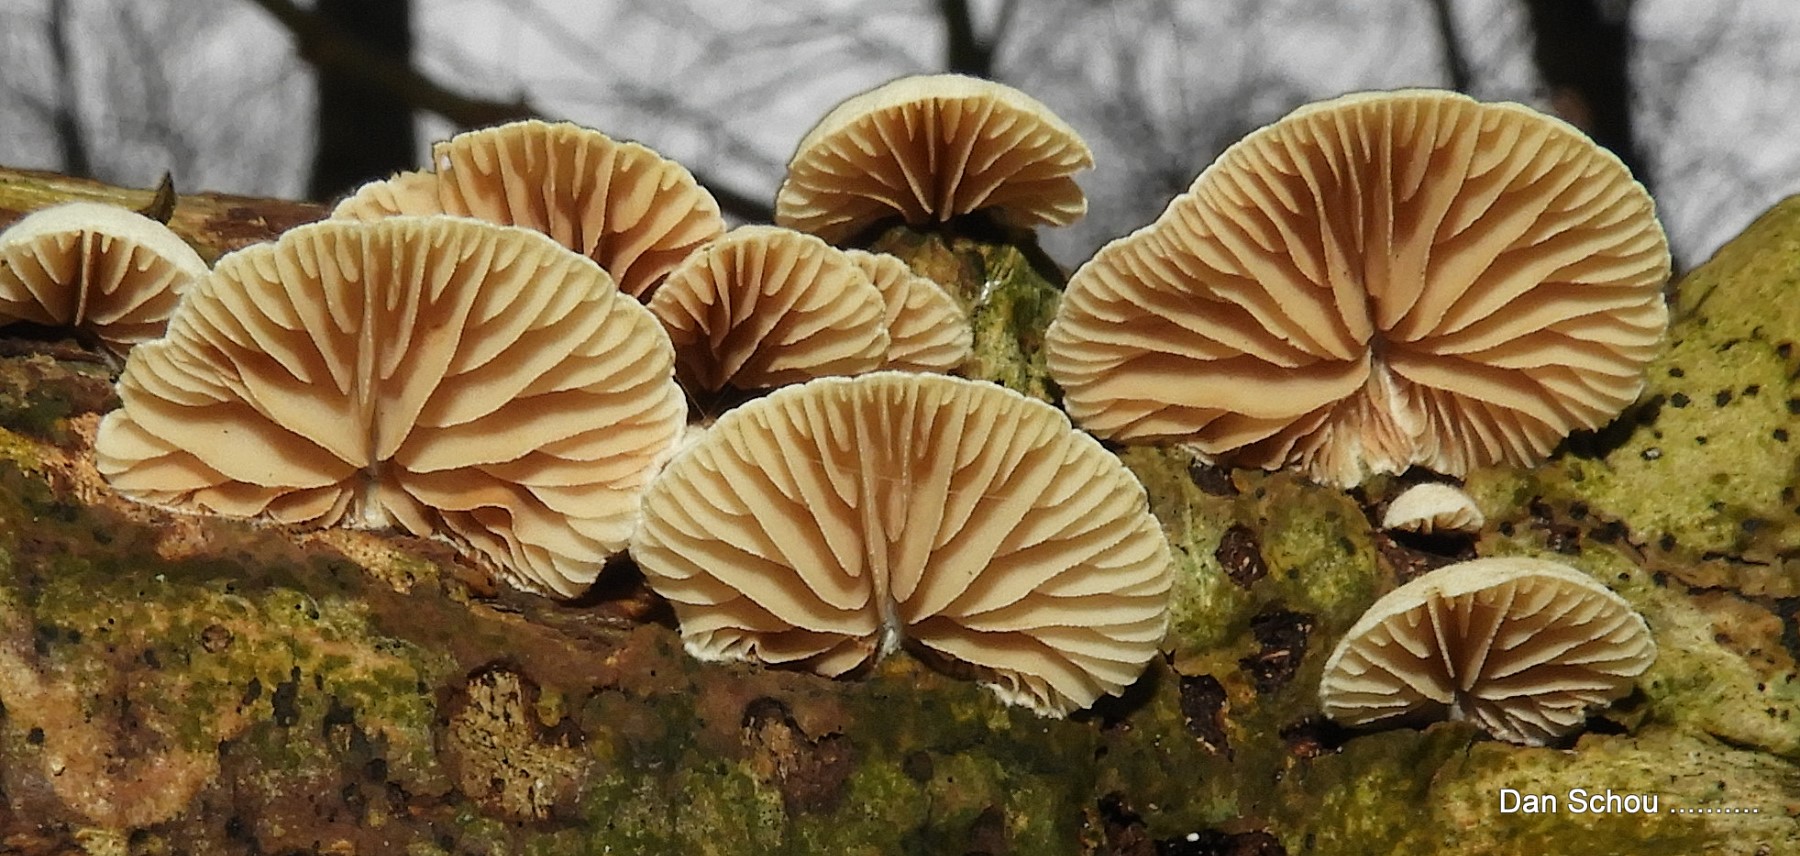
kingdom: Fungi
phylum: Basidiomycota
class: Agaricomycetes
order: Agaricales
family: Crepidotaceae
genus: Crepidotus
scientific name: Crepidotus
